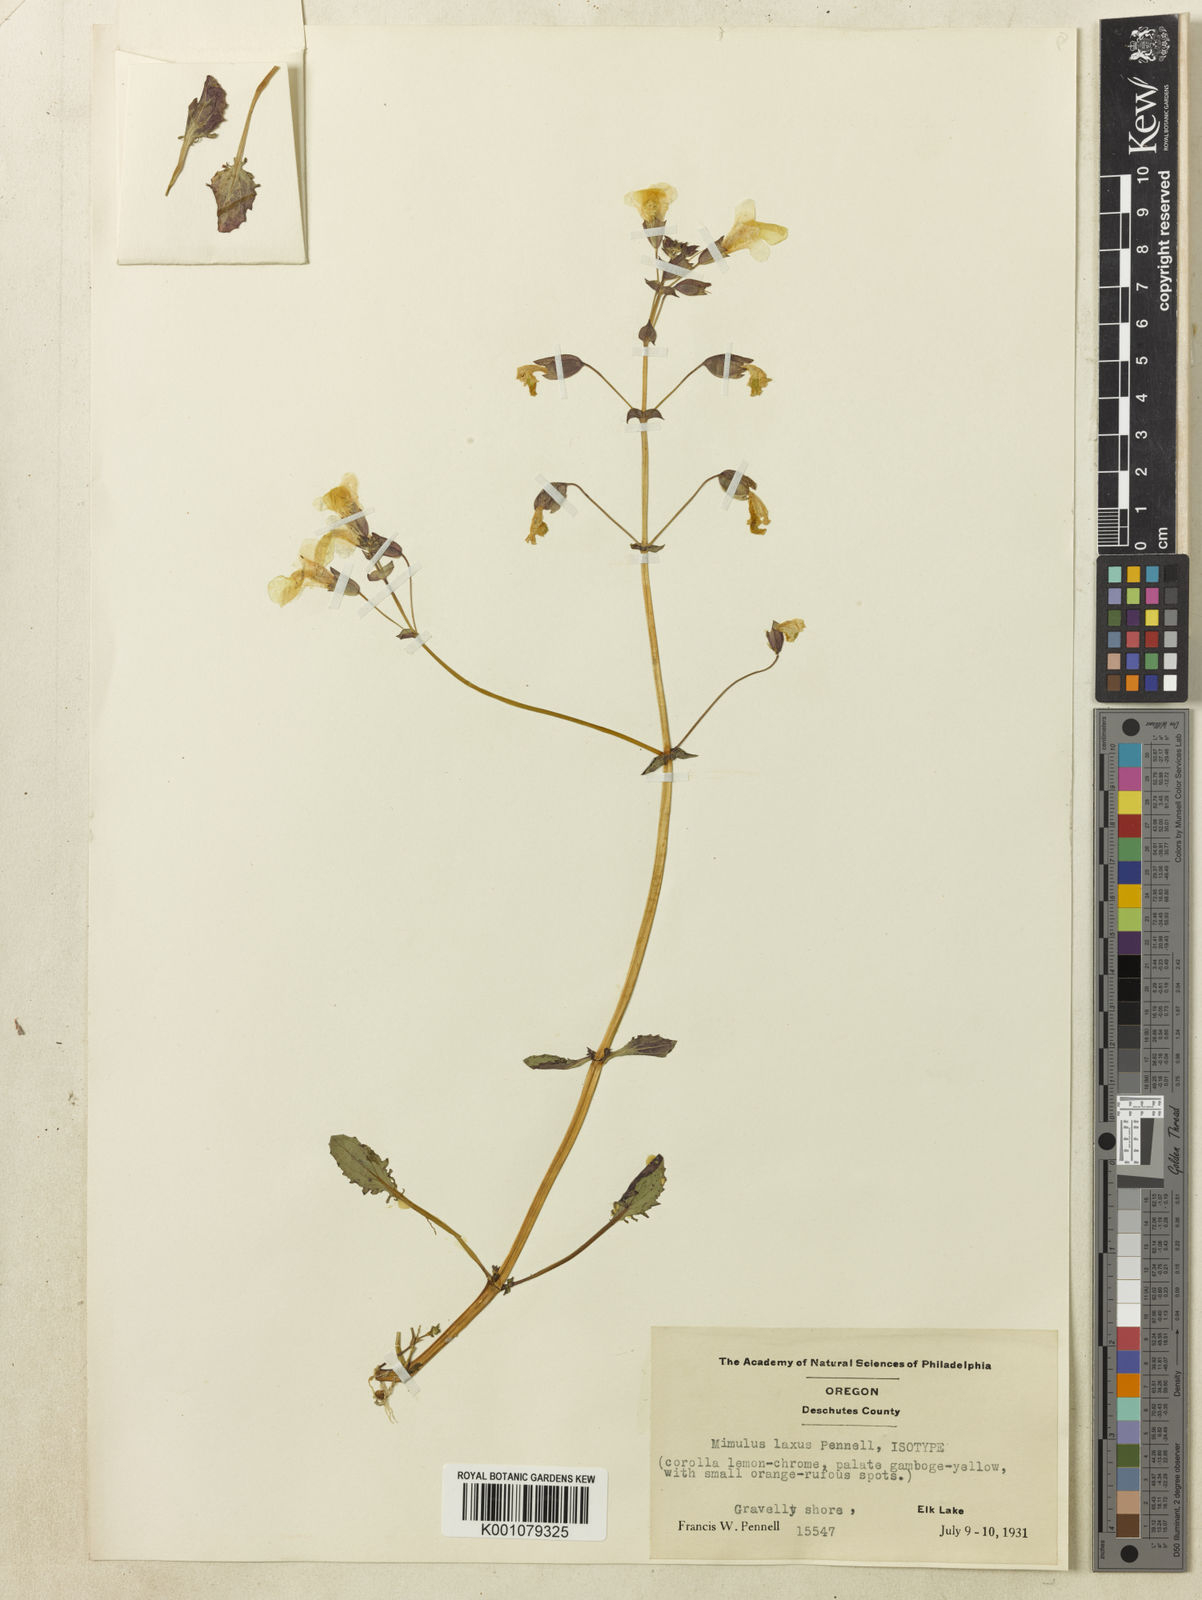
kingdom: Plantae
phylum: Tracheophyta
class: Magnoliopsida
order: Lamiales
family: Phrymaceae
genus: Mimulus
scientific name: Mimulus
